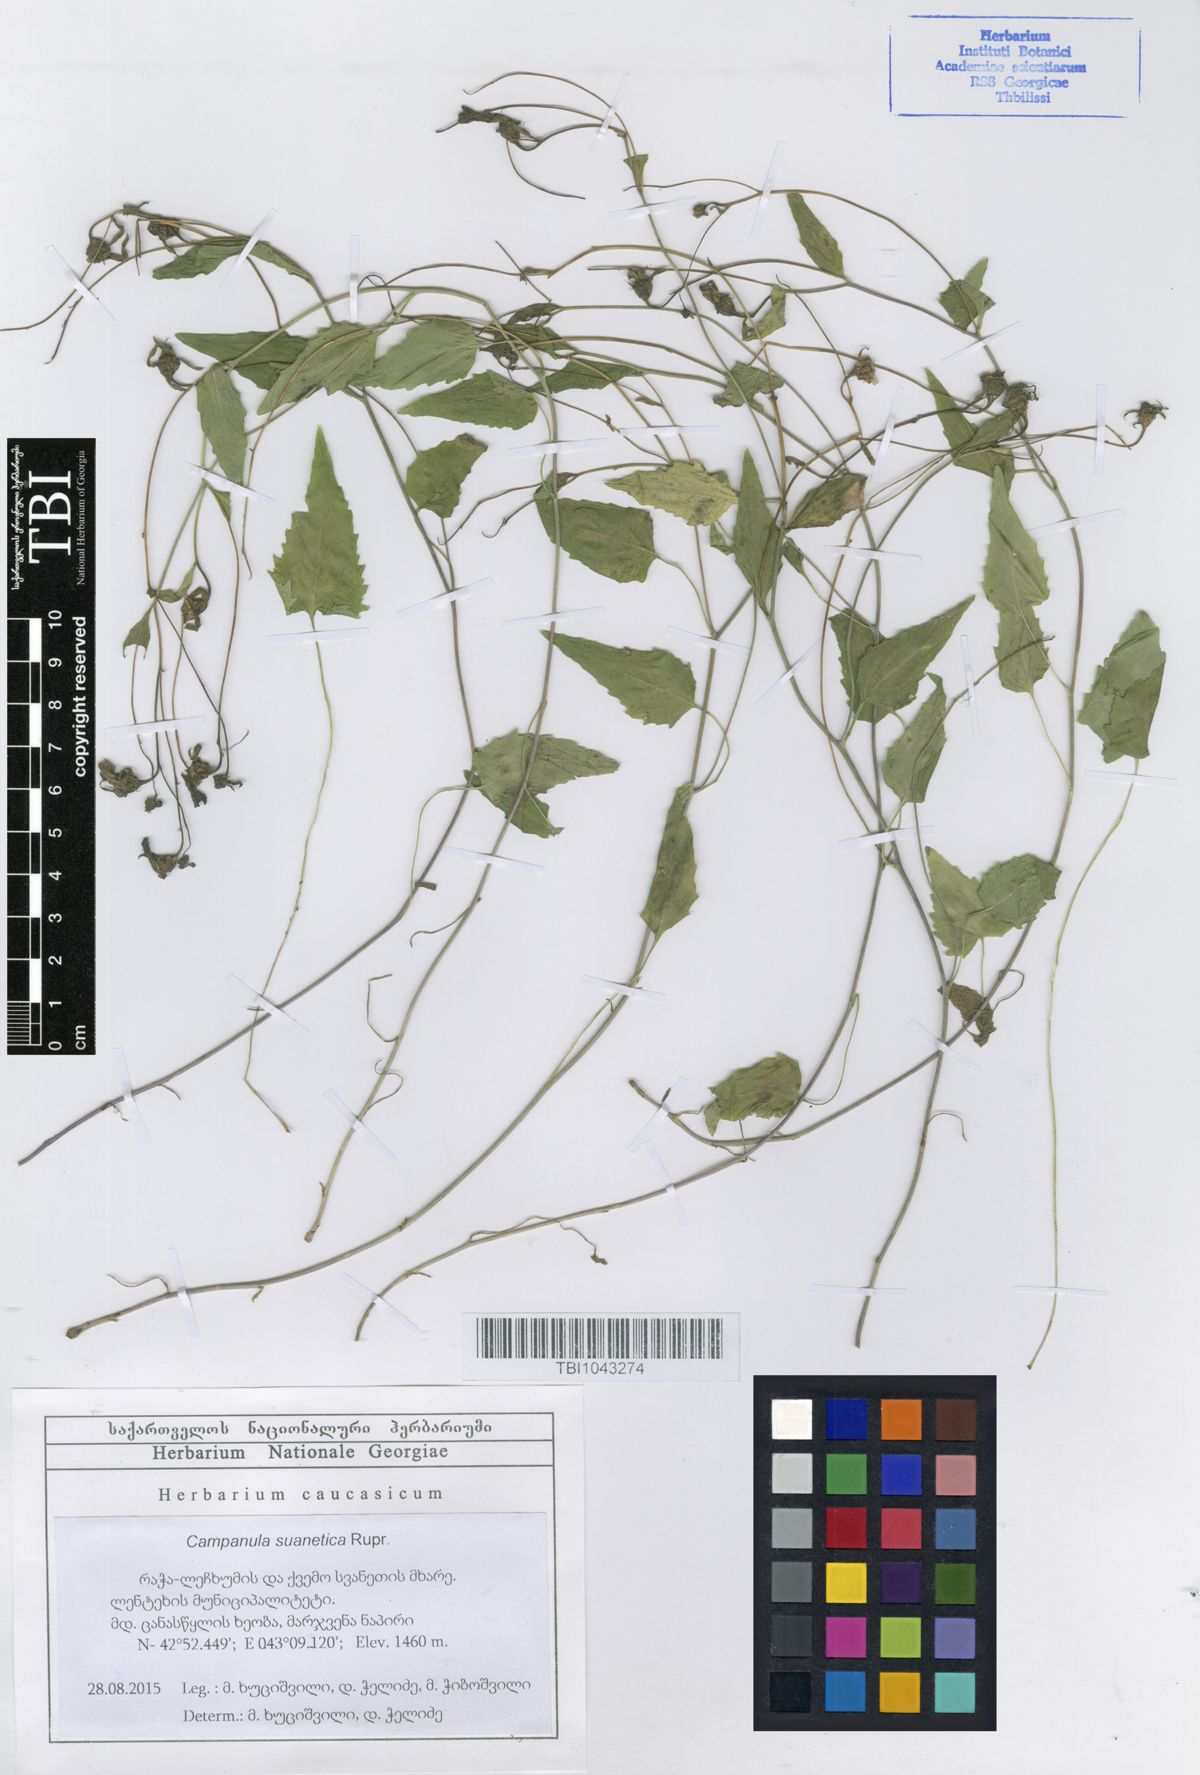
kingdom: Plantae
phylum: Tracheophyta
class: Magnoliopsida
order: Asterales
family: Campanulaceae
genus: Campanula
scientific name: Campanula suanetica
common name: Svanetian bellflower
